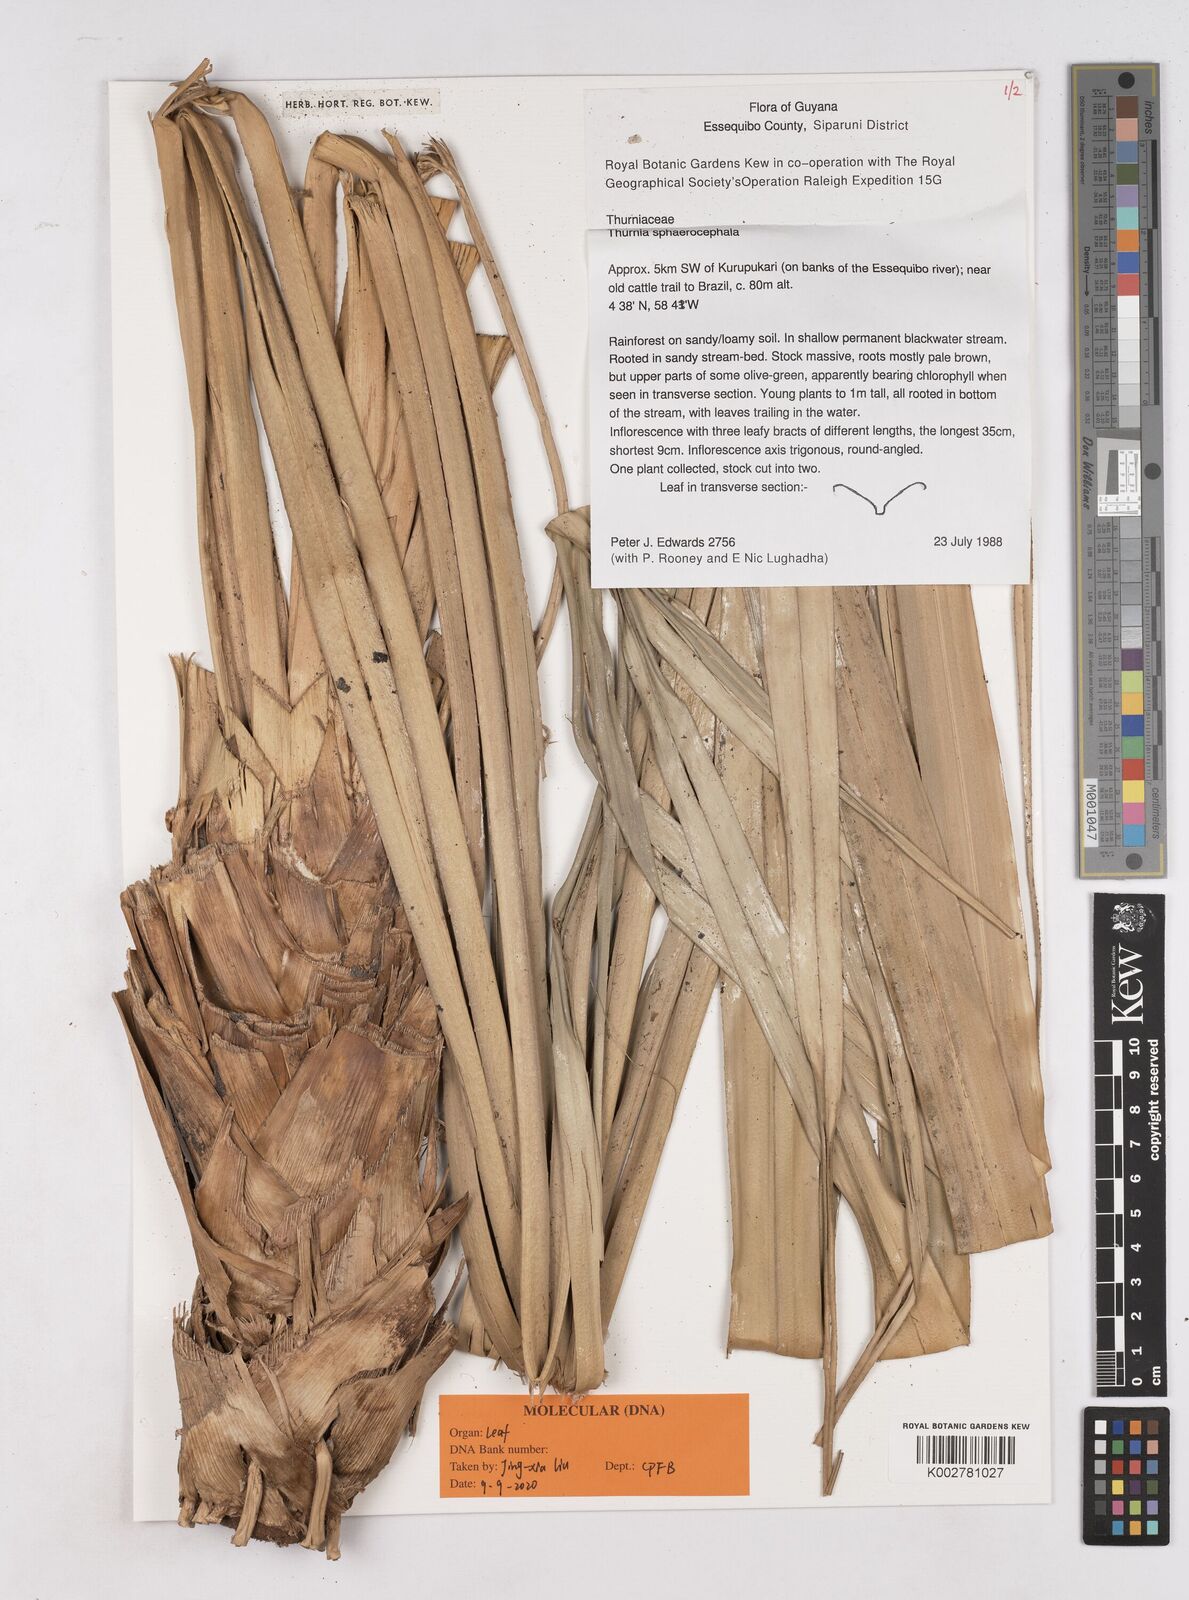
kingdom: Plantae
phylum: Tracheophyta
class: Liliopsida
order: Poales
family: Thurniaceae
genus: Thurnia
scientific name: Thurnia sphaerocephala
